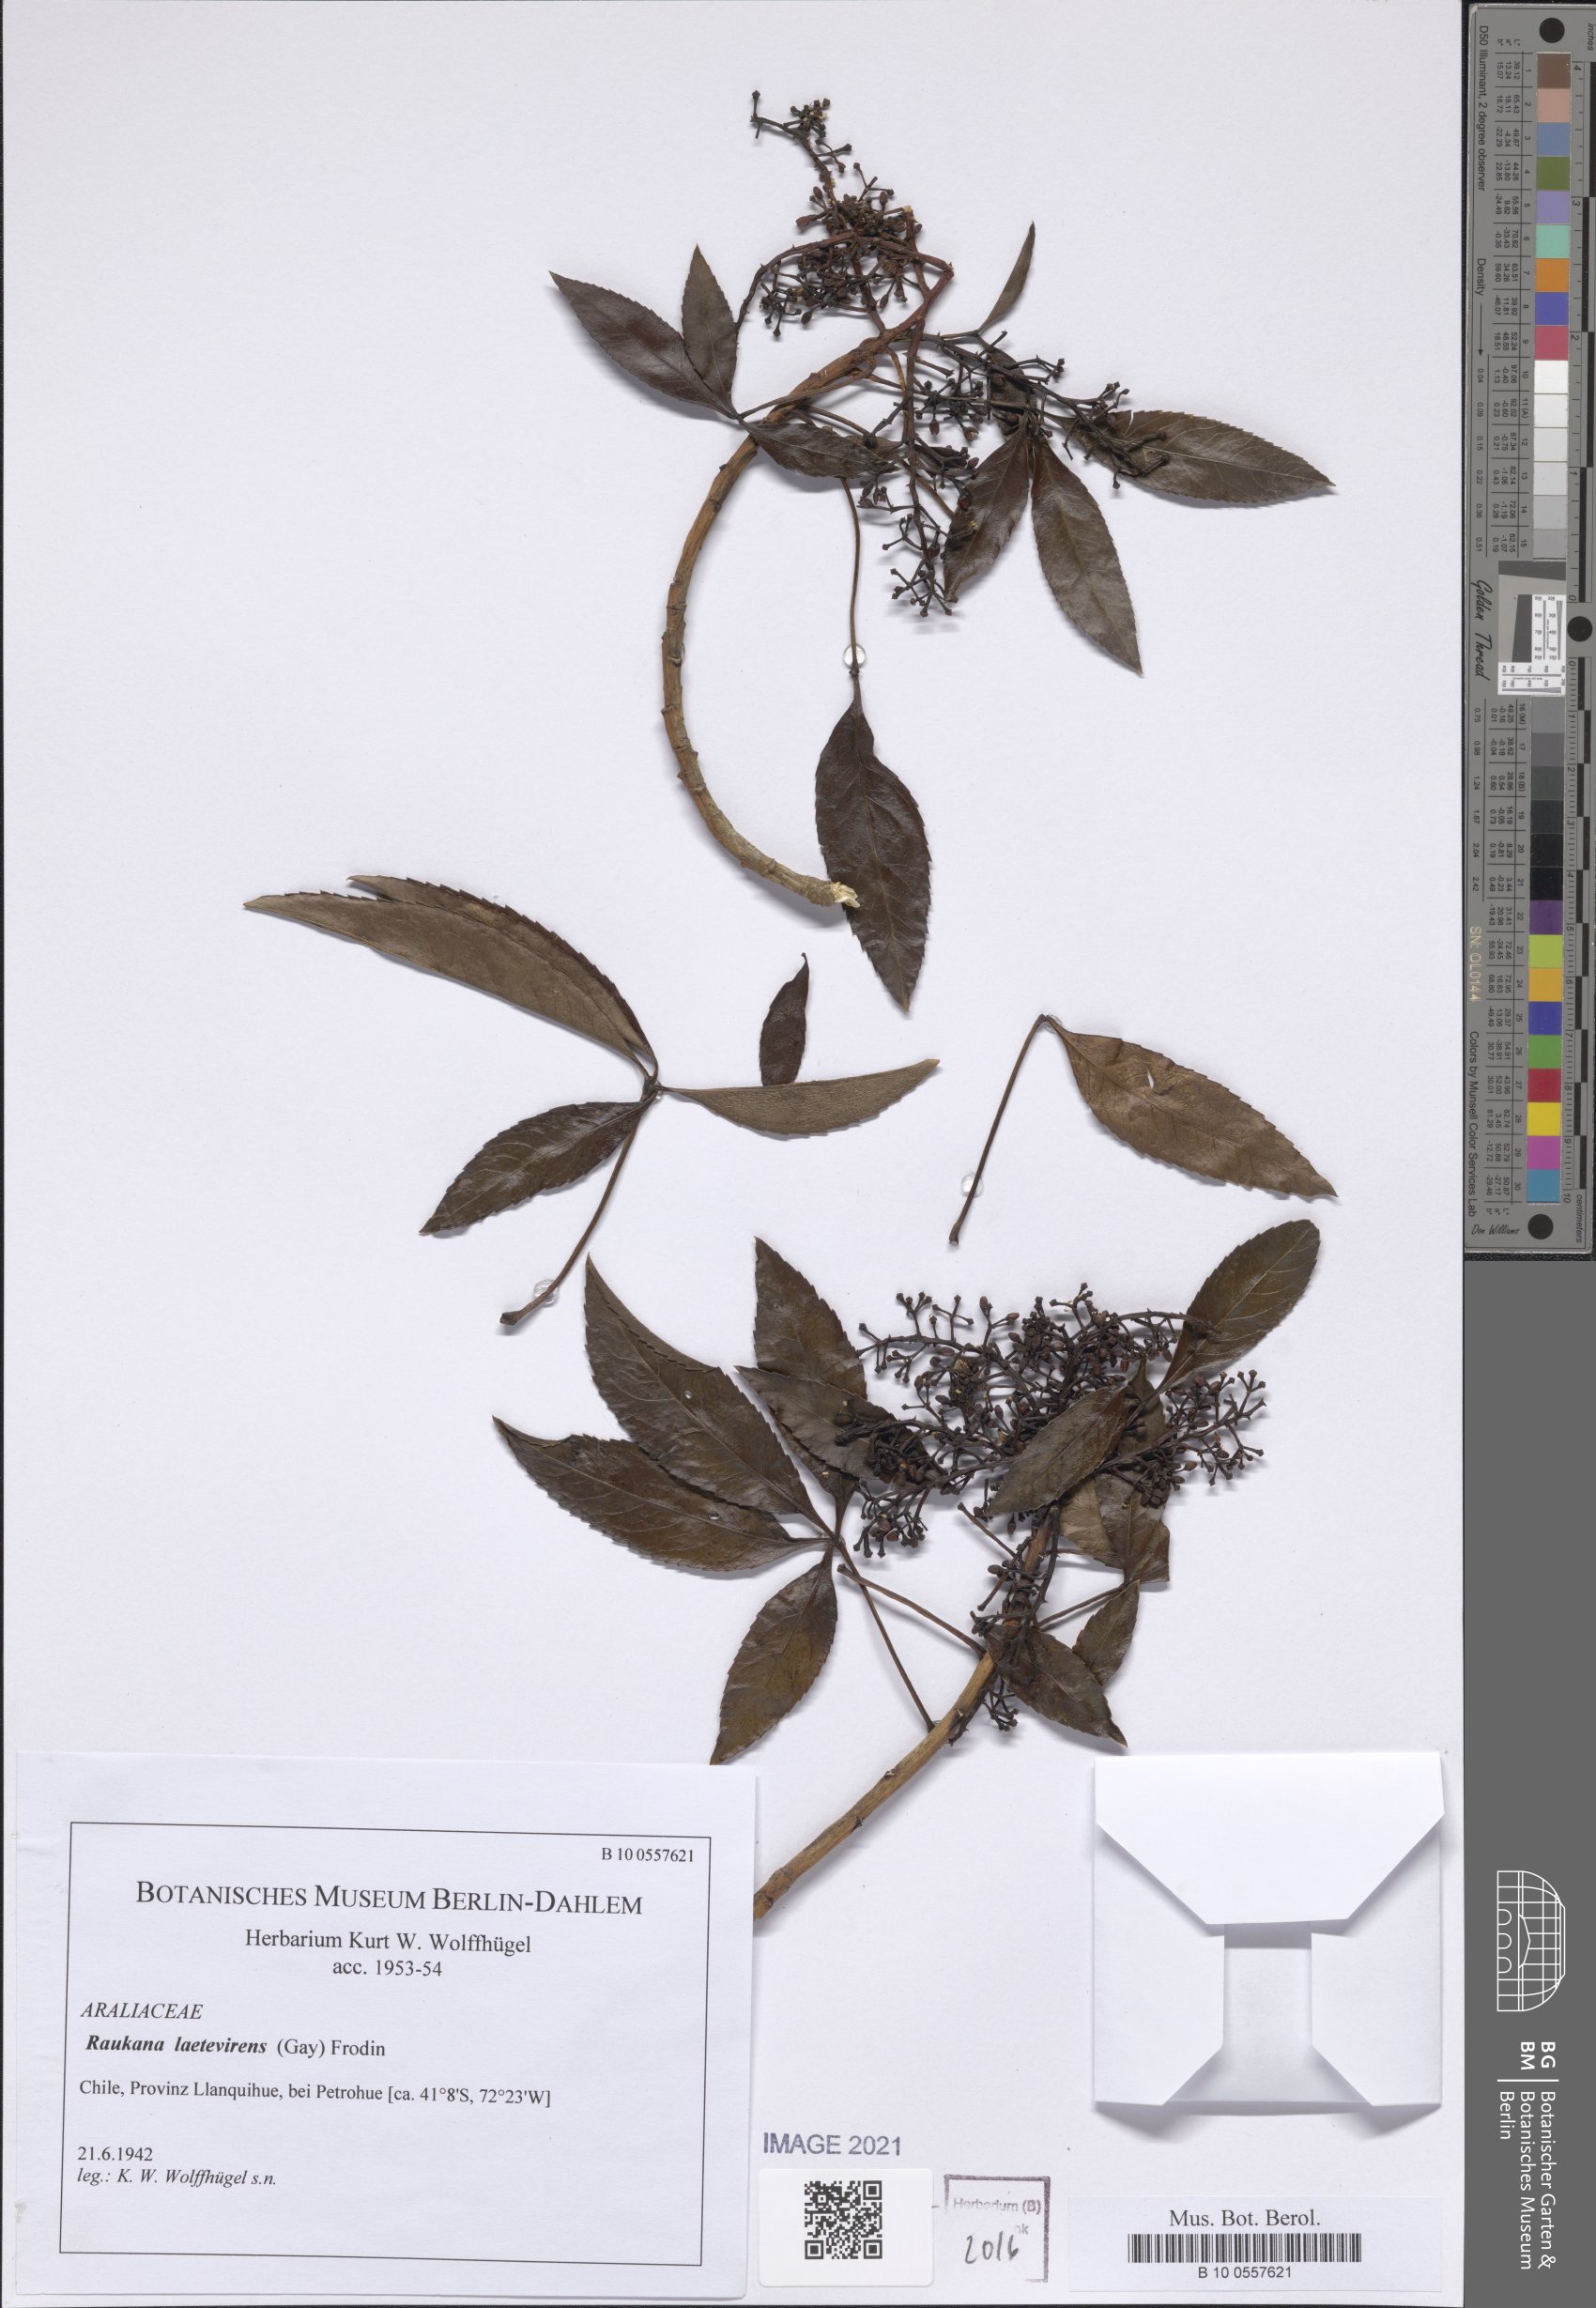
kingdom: Plantae
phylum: Tracheophyta
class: Magnoliopsida
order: Apiales
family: Araliaceae
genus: Raukaua
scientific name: Raukaua laetevirens
